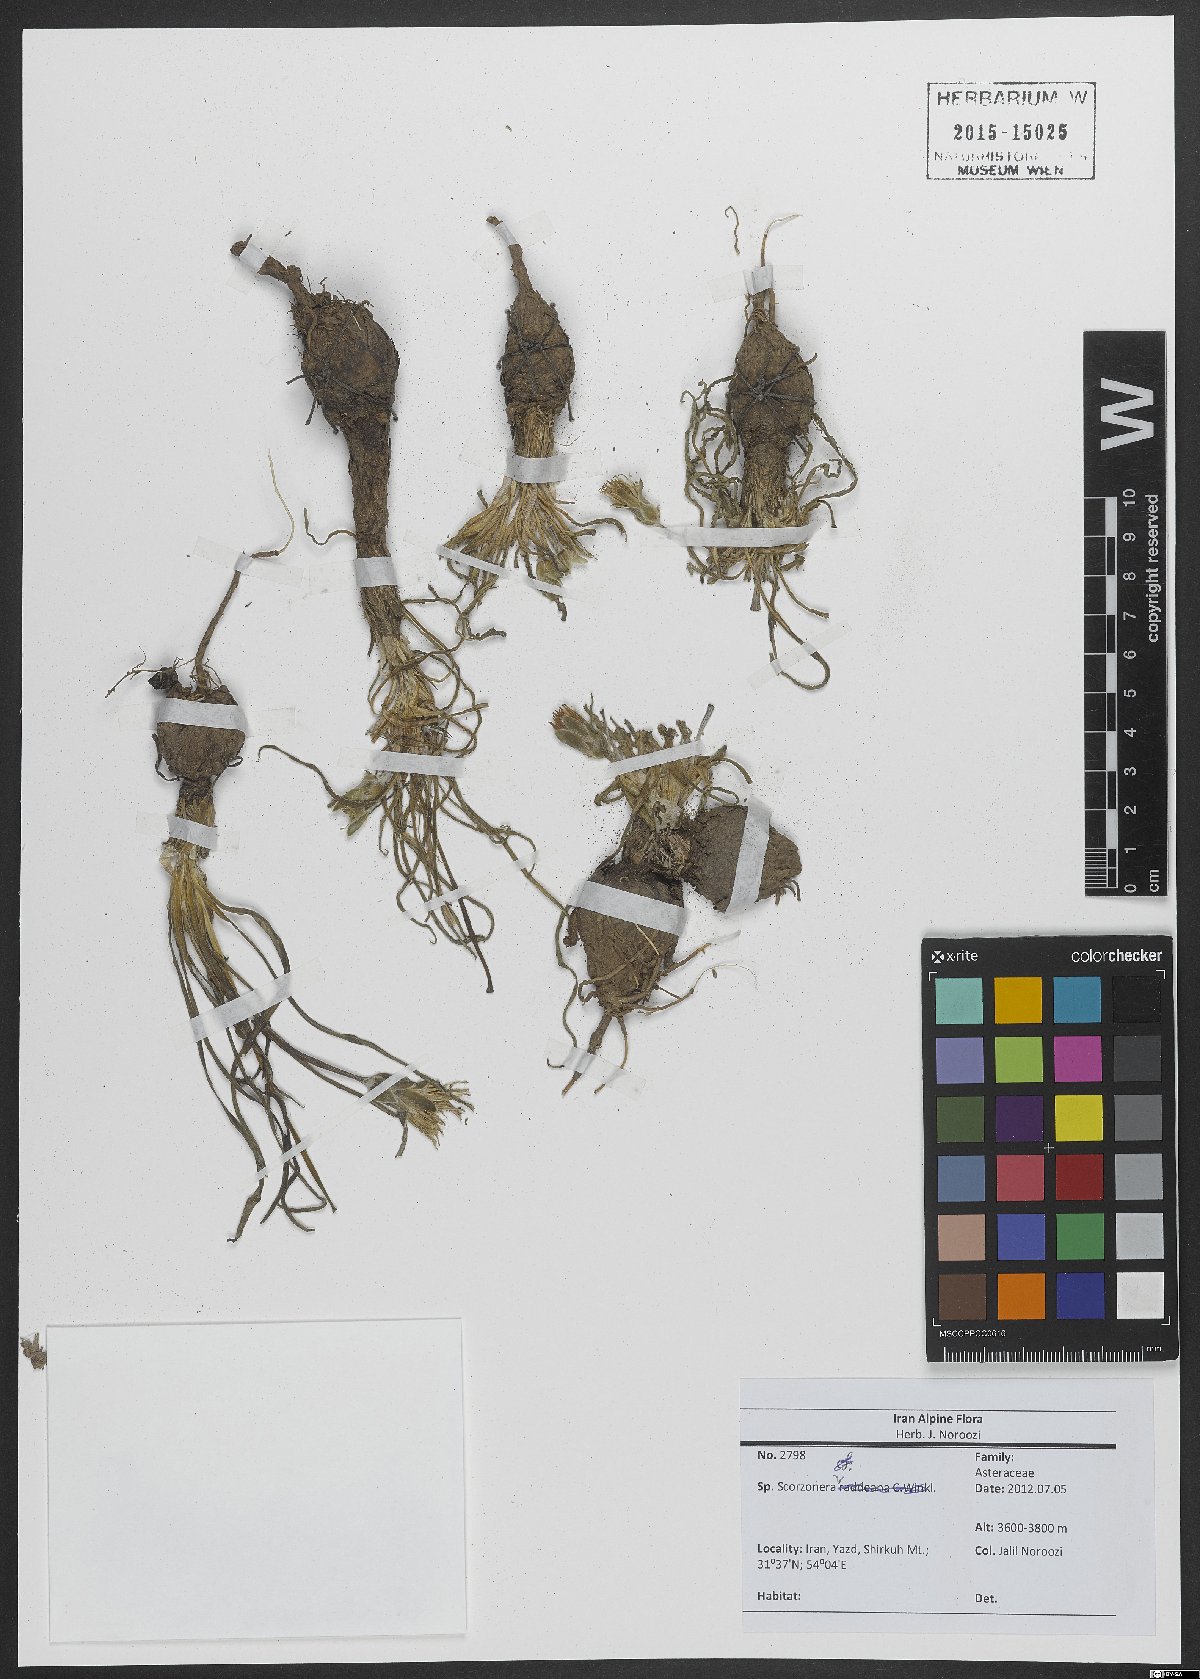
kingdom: Plantae
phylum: Tracheophyta
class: Magnoliopsida
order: Asterales
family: Asteraceae
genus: Scorzonera
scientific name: Scorzonera
